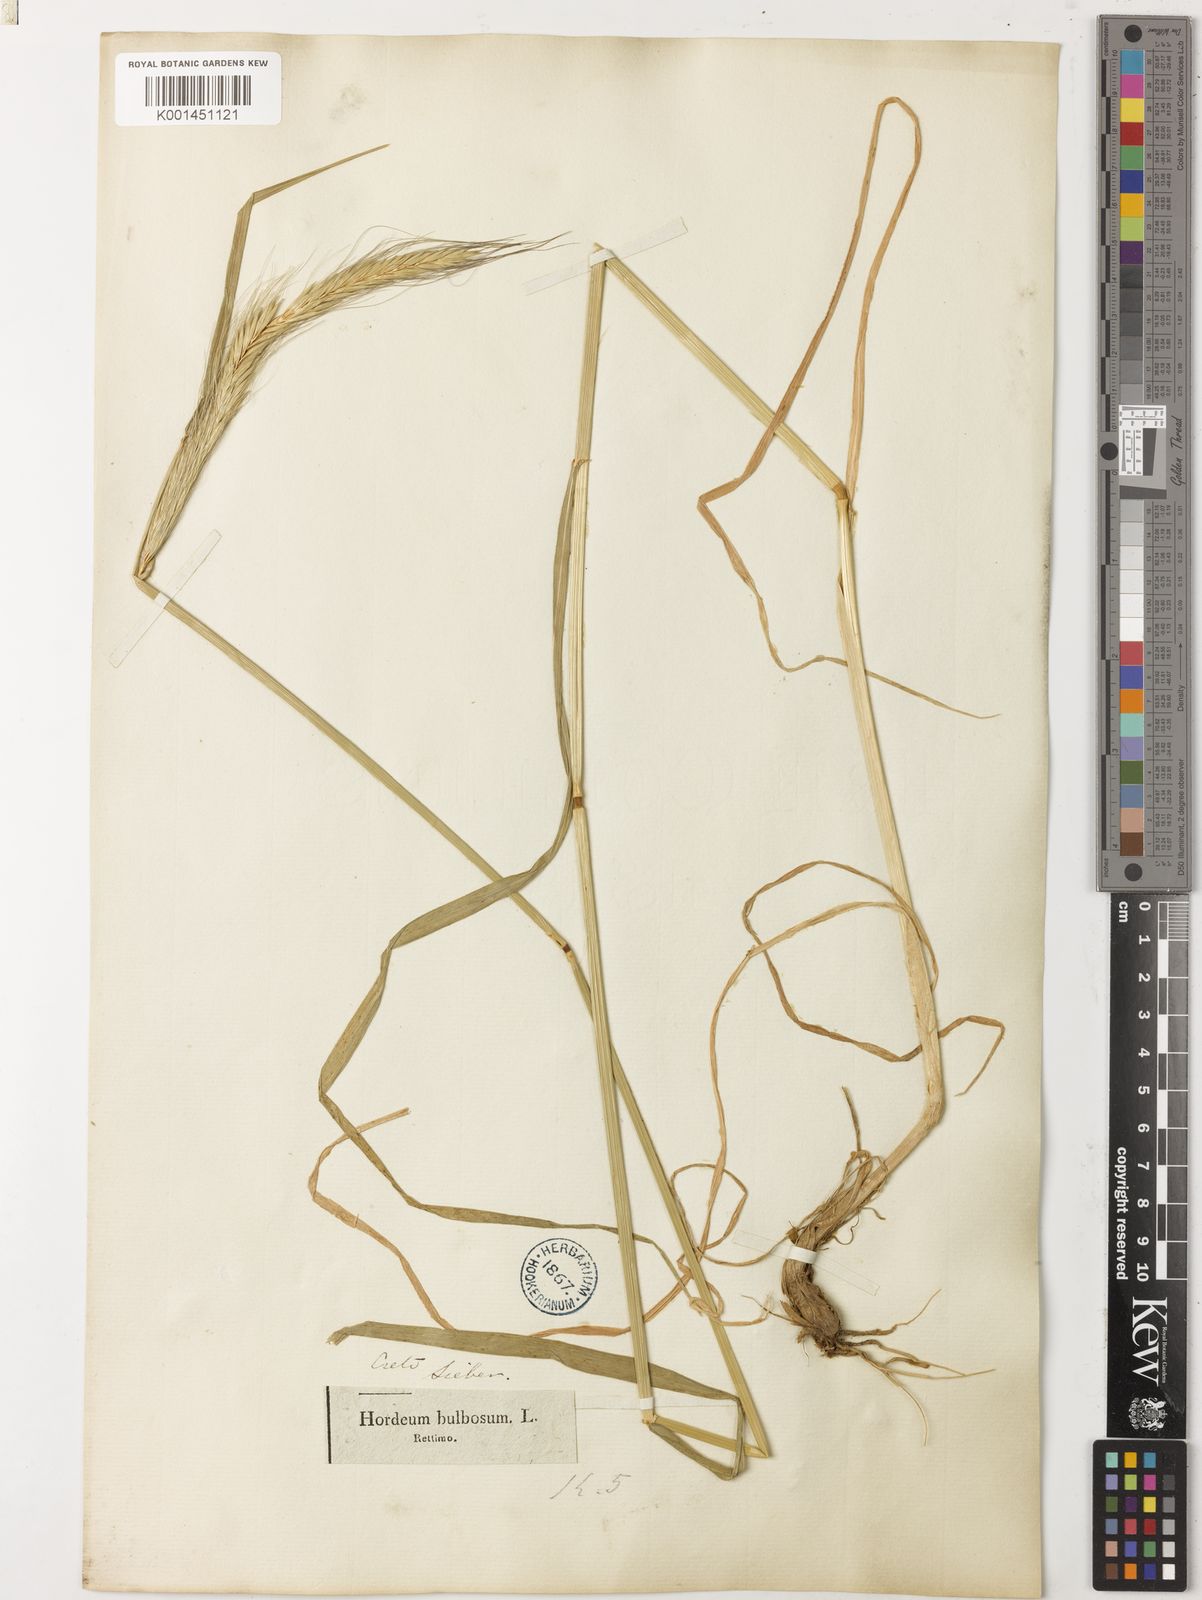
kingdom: Plantae
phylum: Tracheophyta
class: Liliopsida
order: Poales
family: Poaceae
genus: Hordeum
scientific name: Hordeum bulbosum
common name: Bulbous barley
